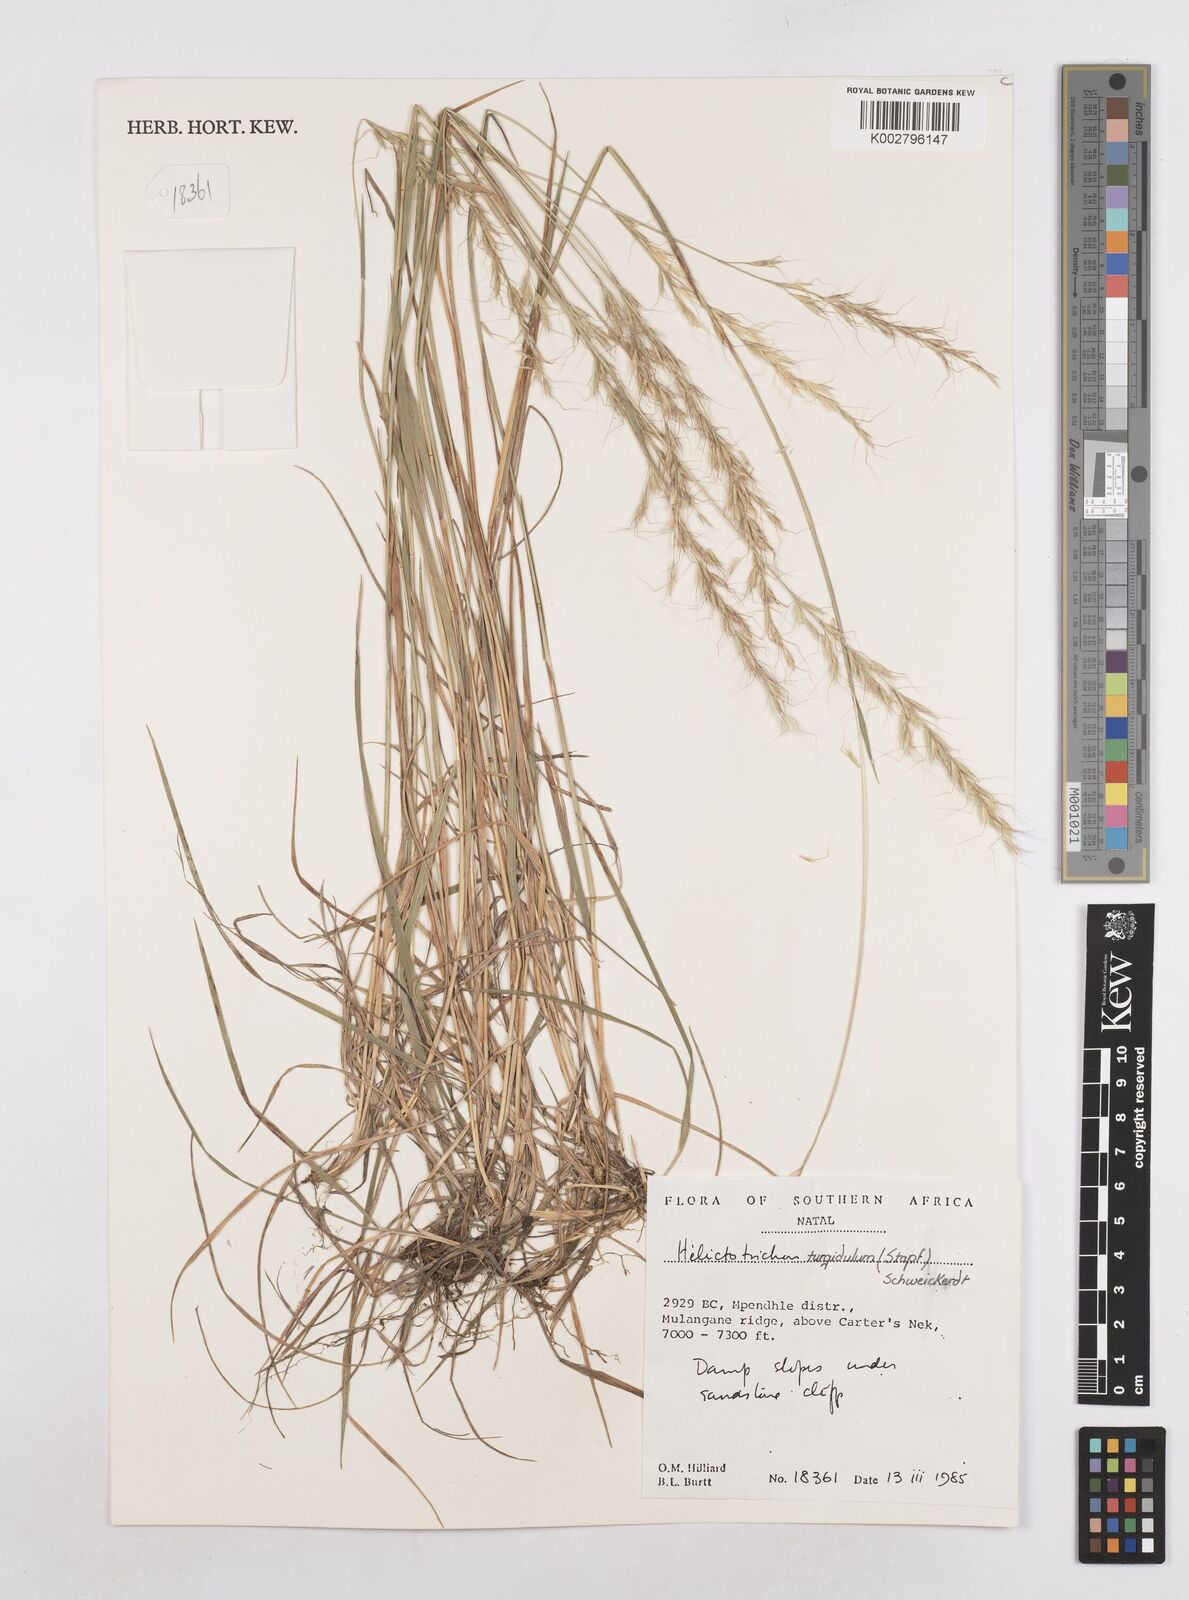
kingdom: Plantae
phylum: Tracheophyta
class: Liliopsida
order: Poales
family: Poaceae
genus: Trisetopsis
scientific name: Trisetopsis imberbis
